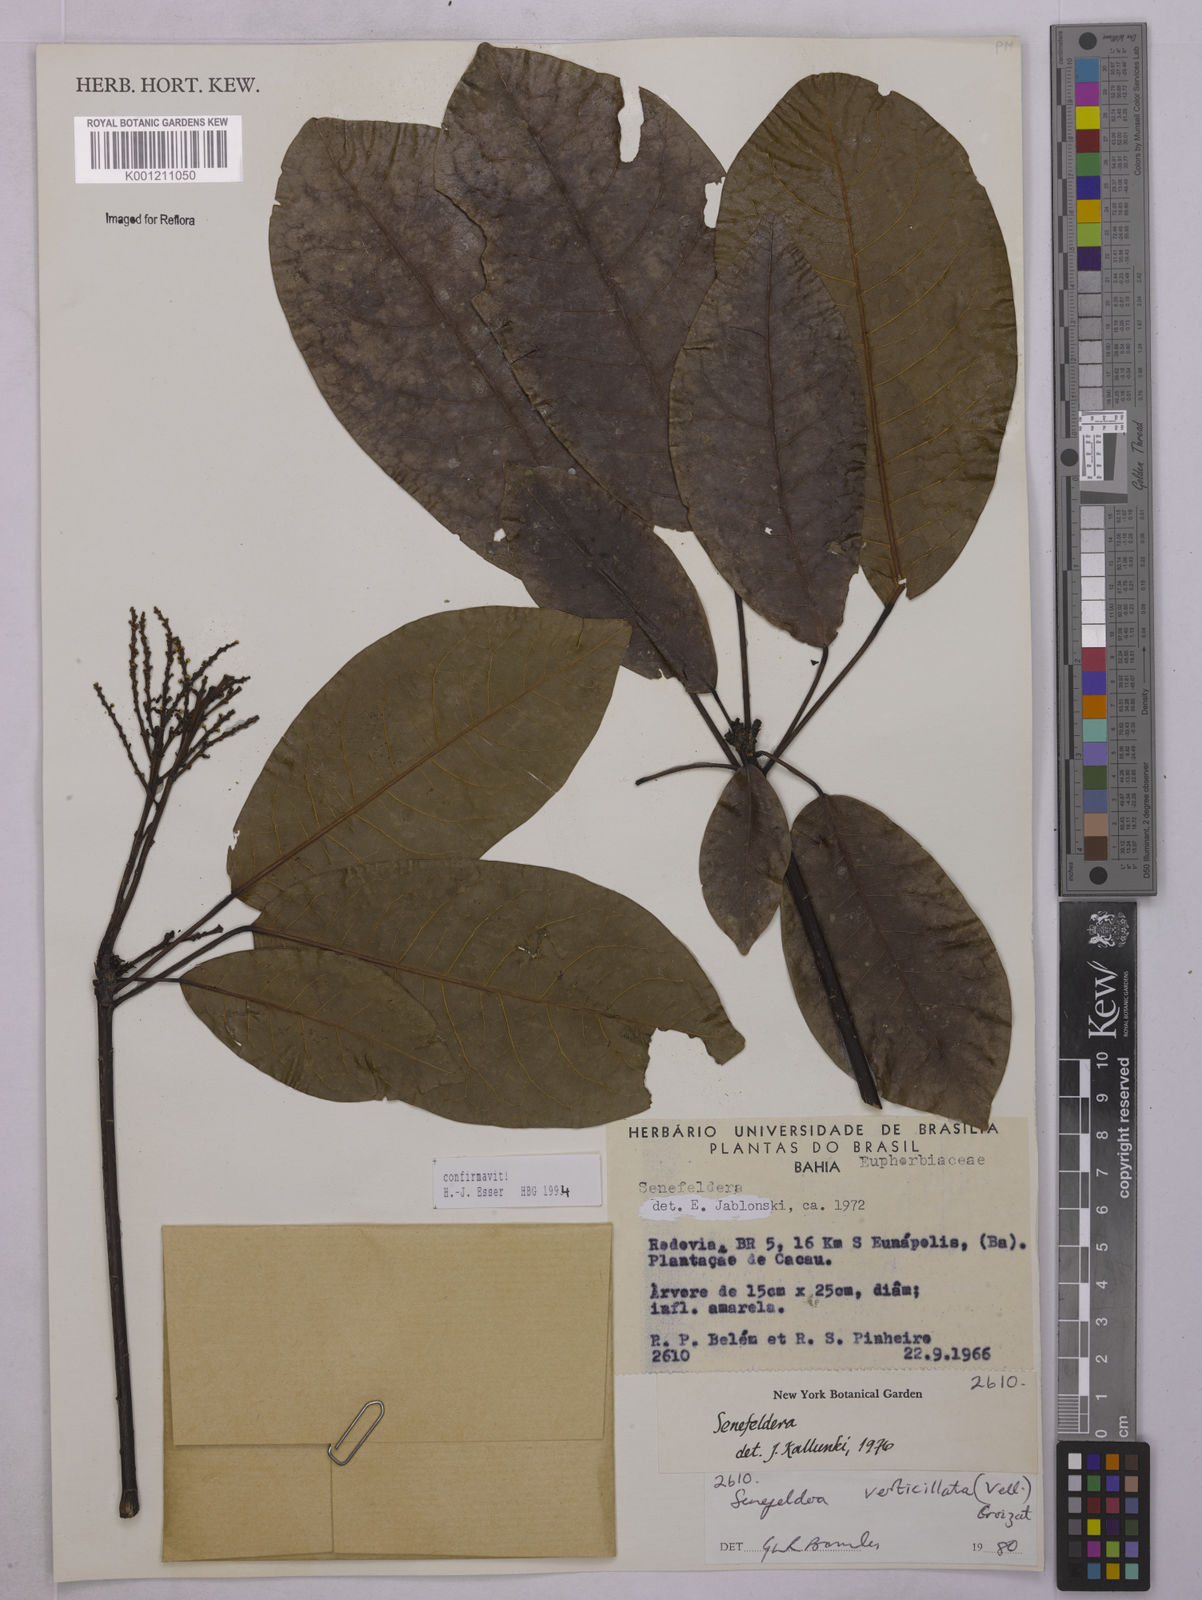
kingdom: Plantae
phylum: Tracheophyta
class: Magnoliopsida
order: Malpighiales
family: Euphorbiaceae
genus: Senefeldera
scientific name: Senefeldera verticillata
